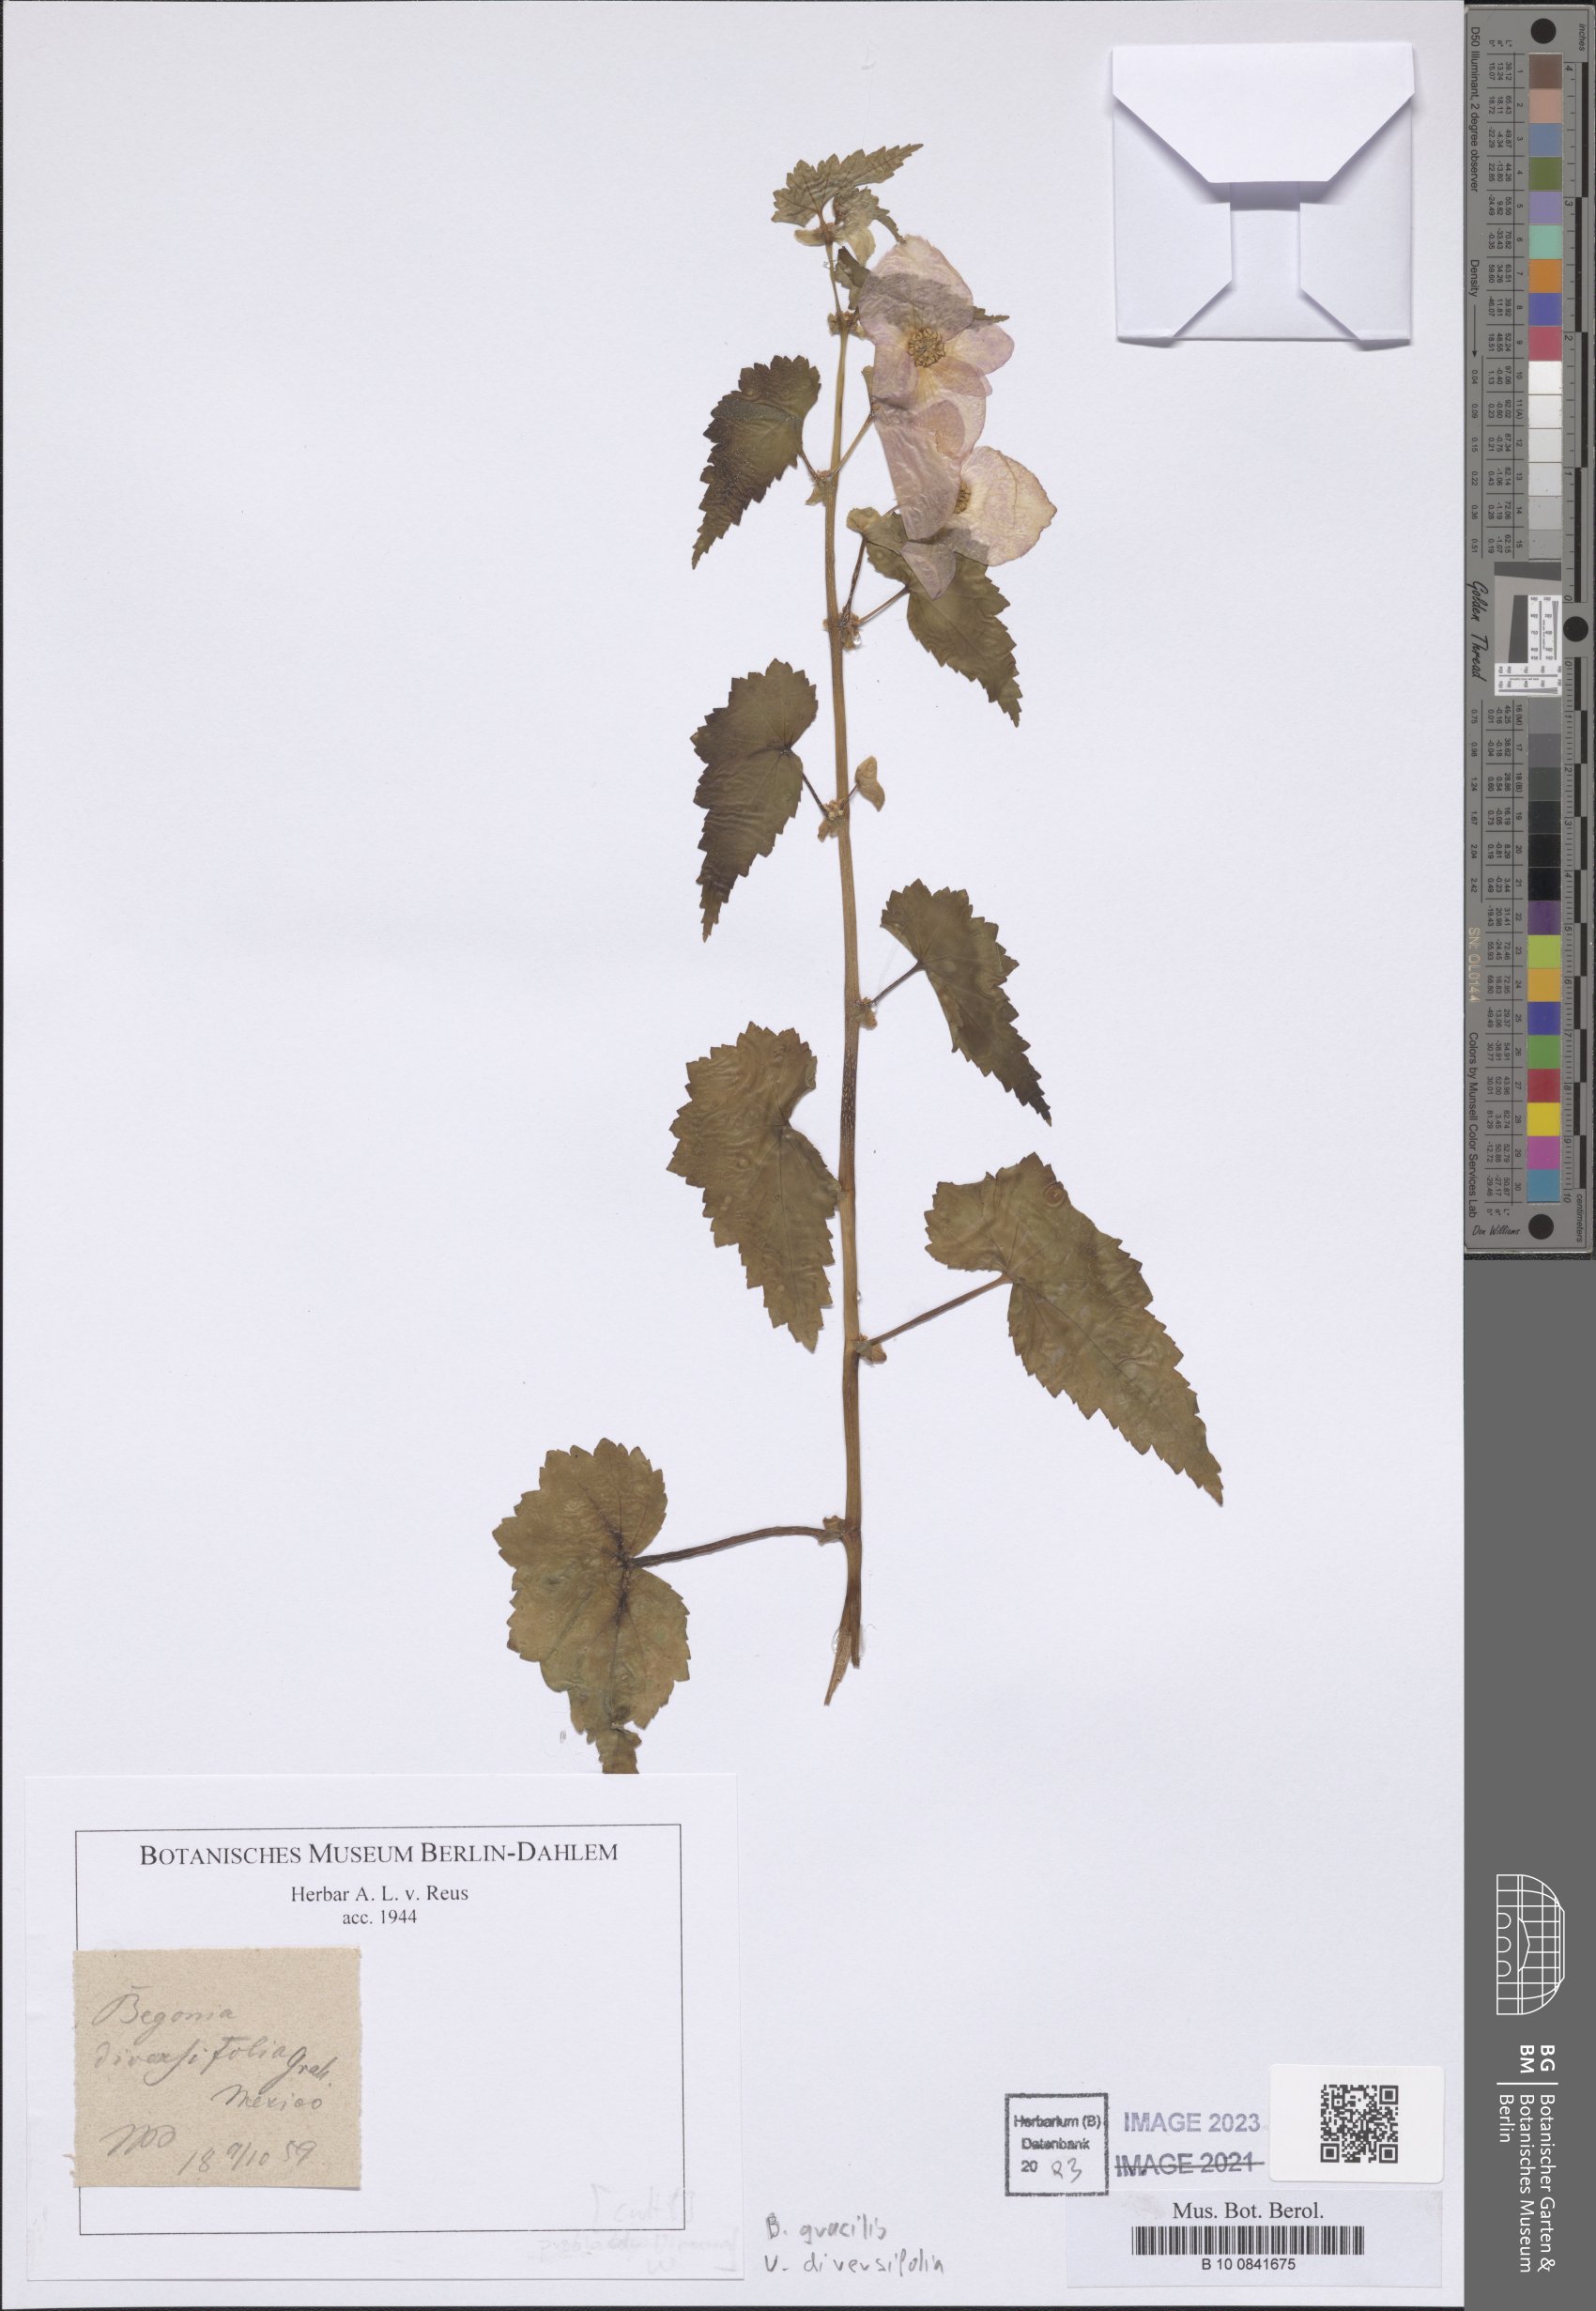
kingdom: Plantae
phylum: Tracheophyta
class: Magnoliopsida
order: Cucurbitales
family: Begoniaceae
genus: Begonia
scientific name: Begonia gracilis
